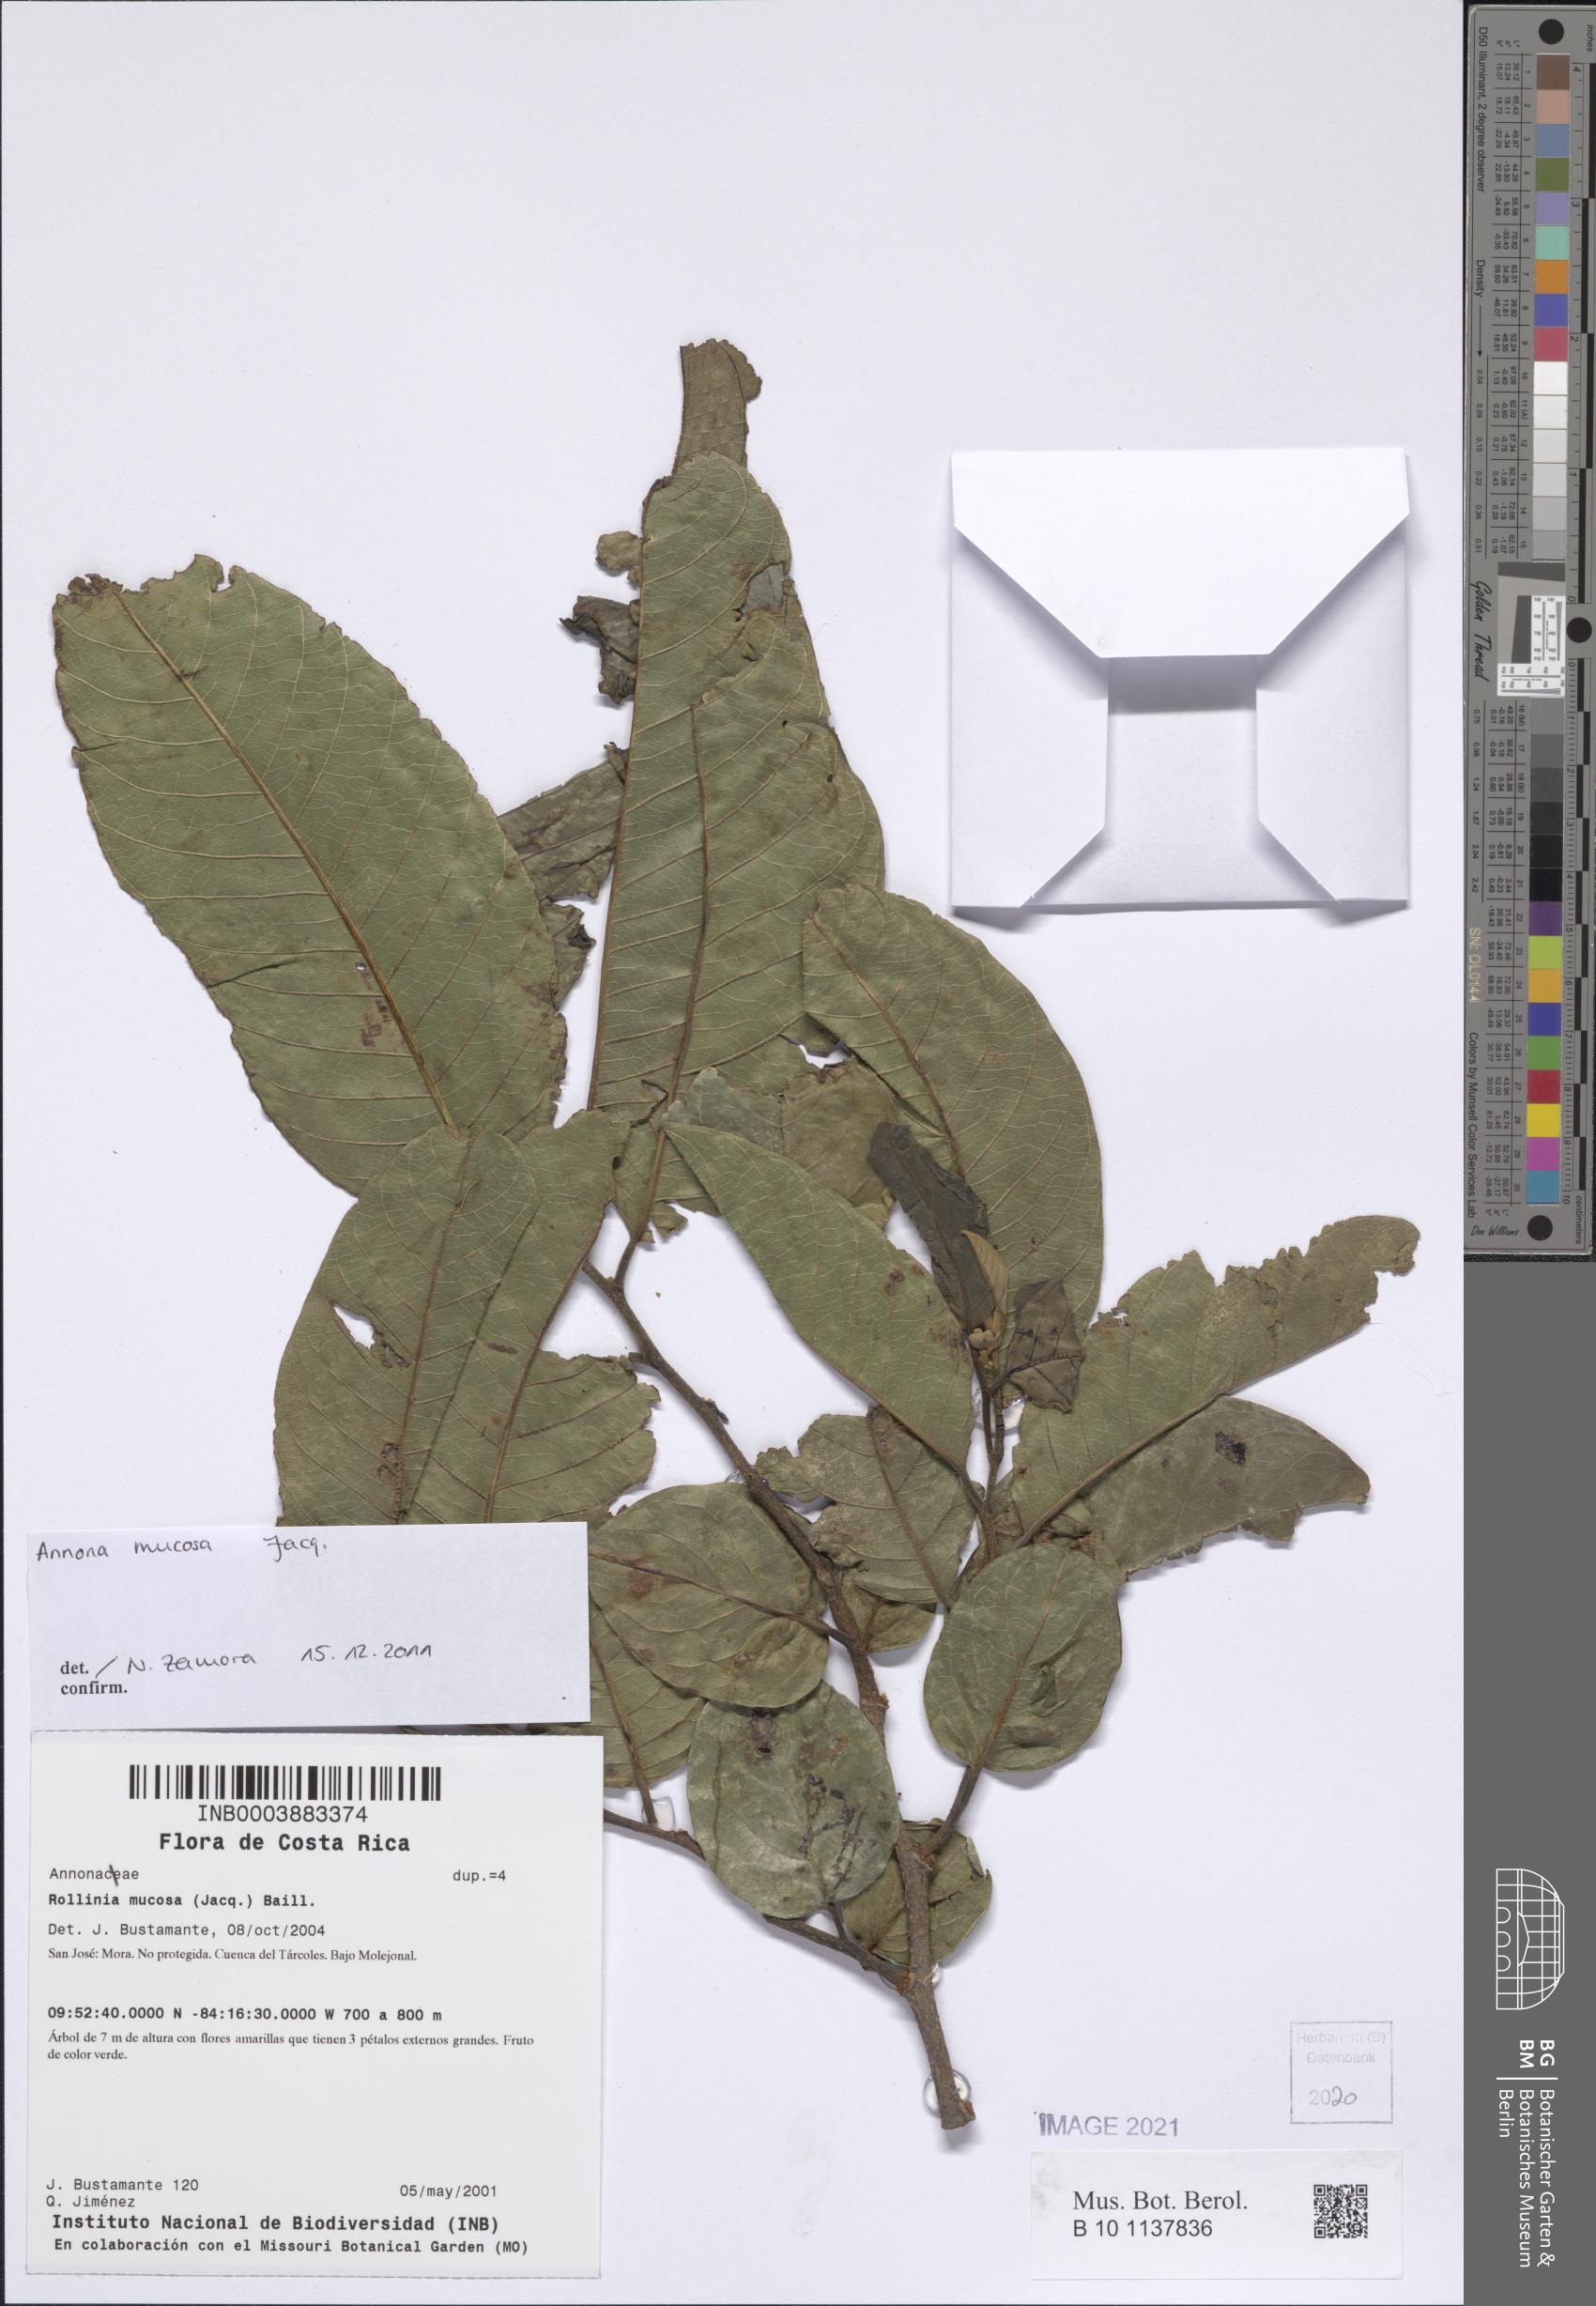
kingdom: Plantae
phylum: Tracheophyta
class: Magnoliopsida
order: Magnoliales
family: Annonaceae
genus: Annona
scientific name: Annona mucosa
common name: Sugar apple
